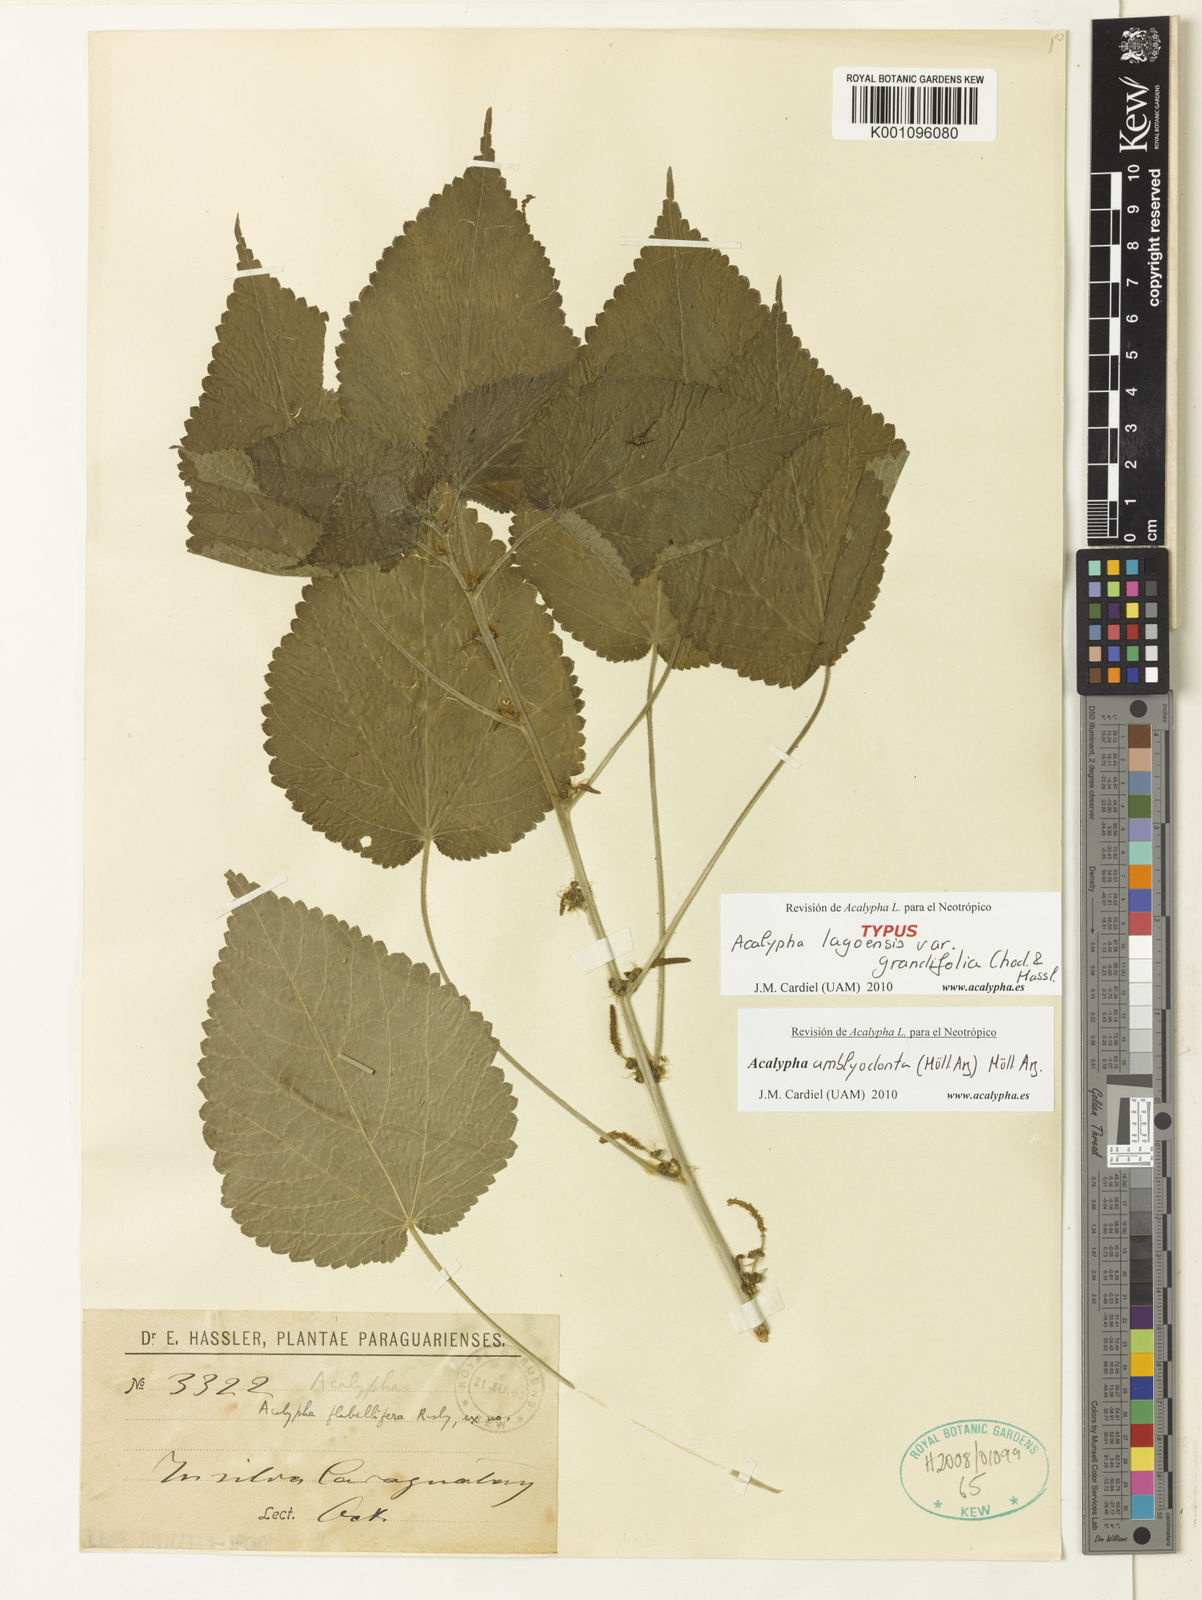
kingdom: Plantae
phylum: Tracheophyta
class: Magnoliopsida
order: Malpighiales
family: Euphorbiaceae
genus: Acalypha
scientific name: Acalypha
